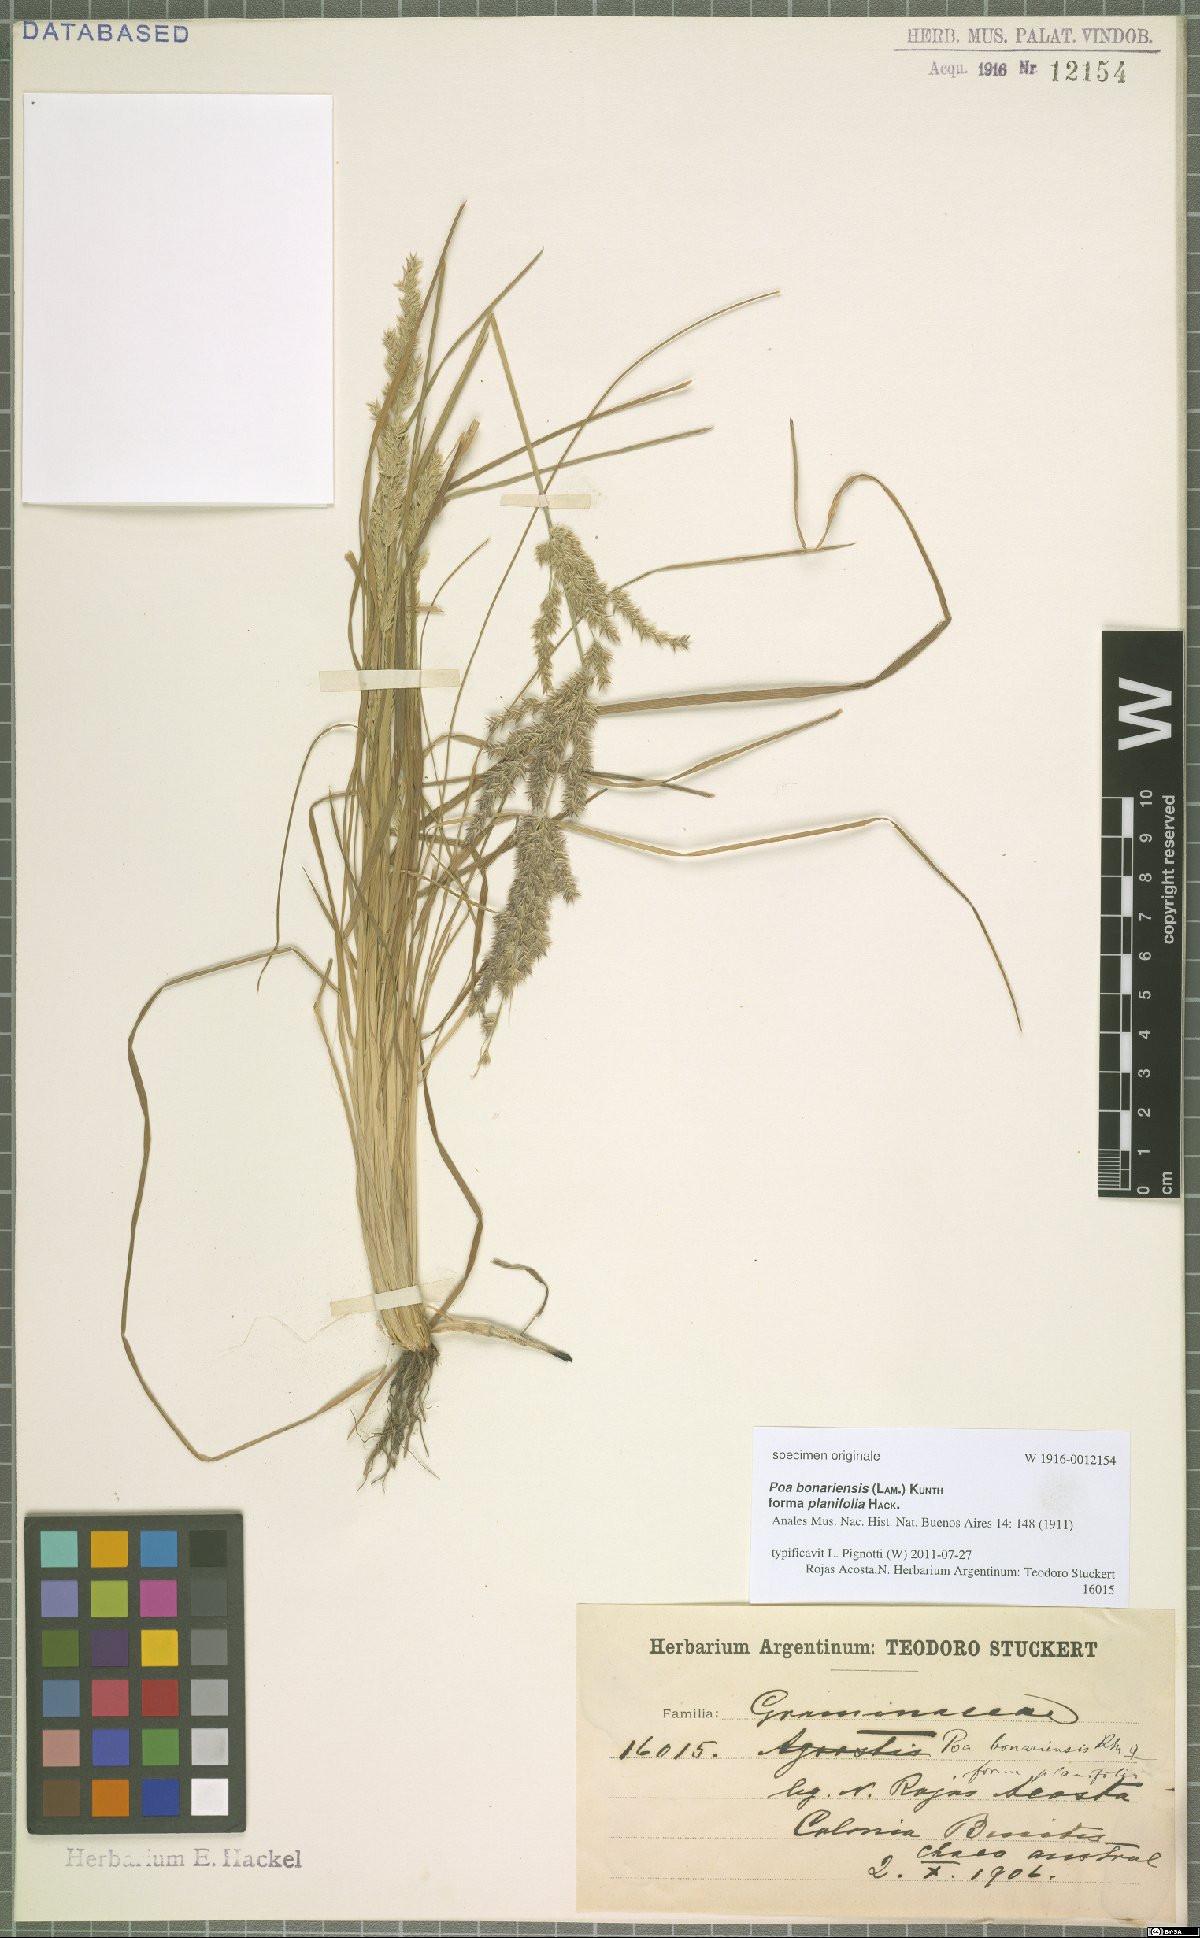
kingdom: Plantae
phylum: Tracheophyta
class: Liliopsida
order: Poales
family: Poaceae
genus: Poa
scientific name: Poa bonariensis
